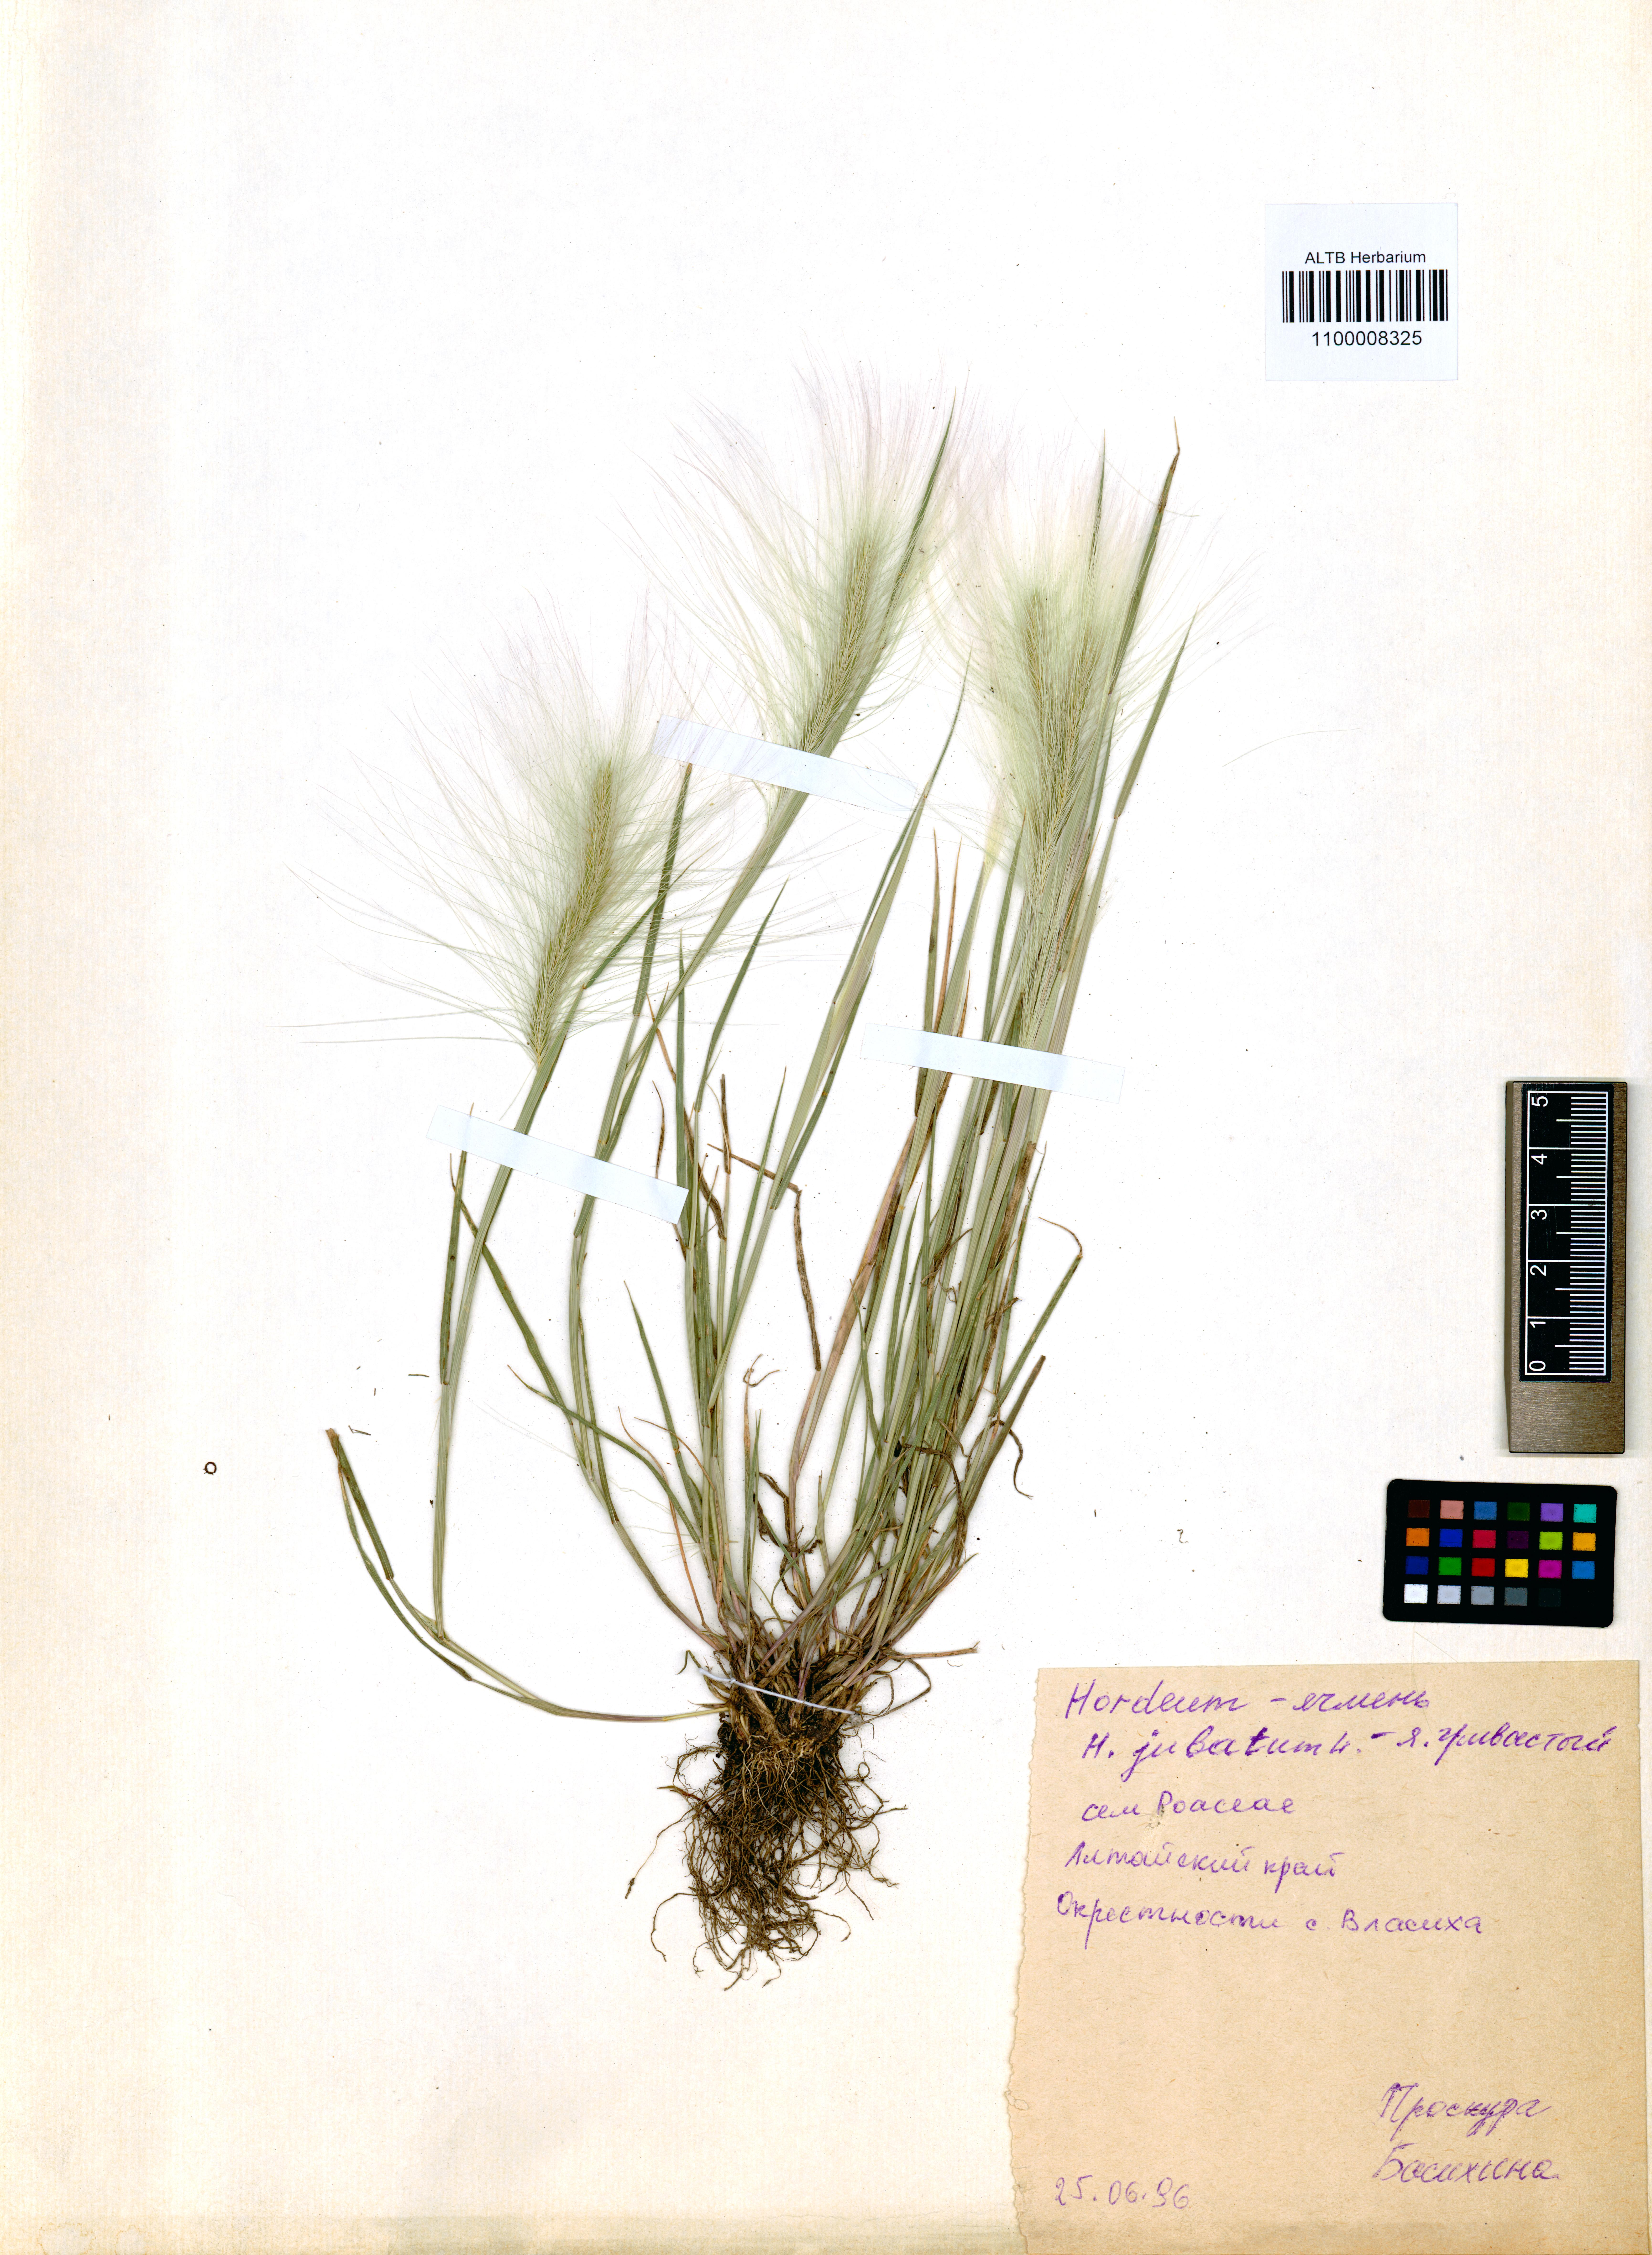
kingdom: Plantae
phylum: Tracheophyta
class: Liliopsida
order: Poales
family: Poaceae
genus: Hordeum
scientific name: Hordeum jubatum
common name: Foxtail barley
